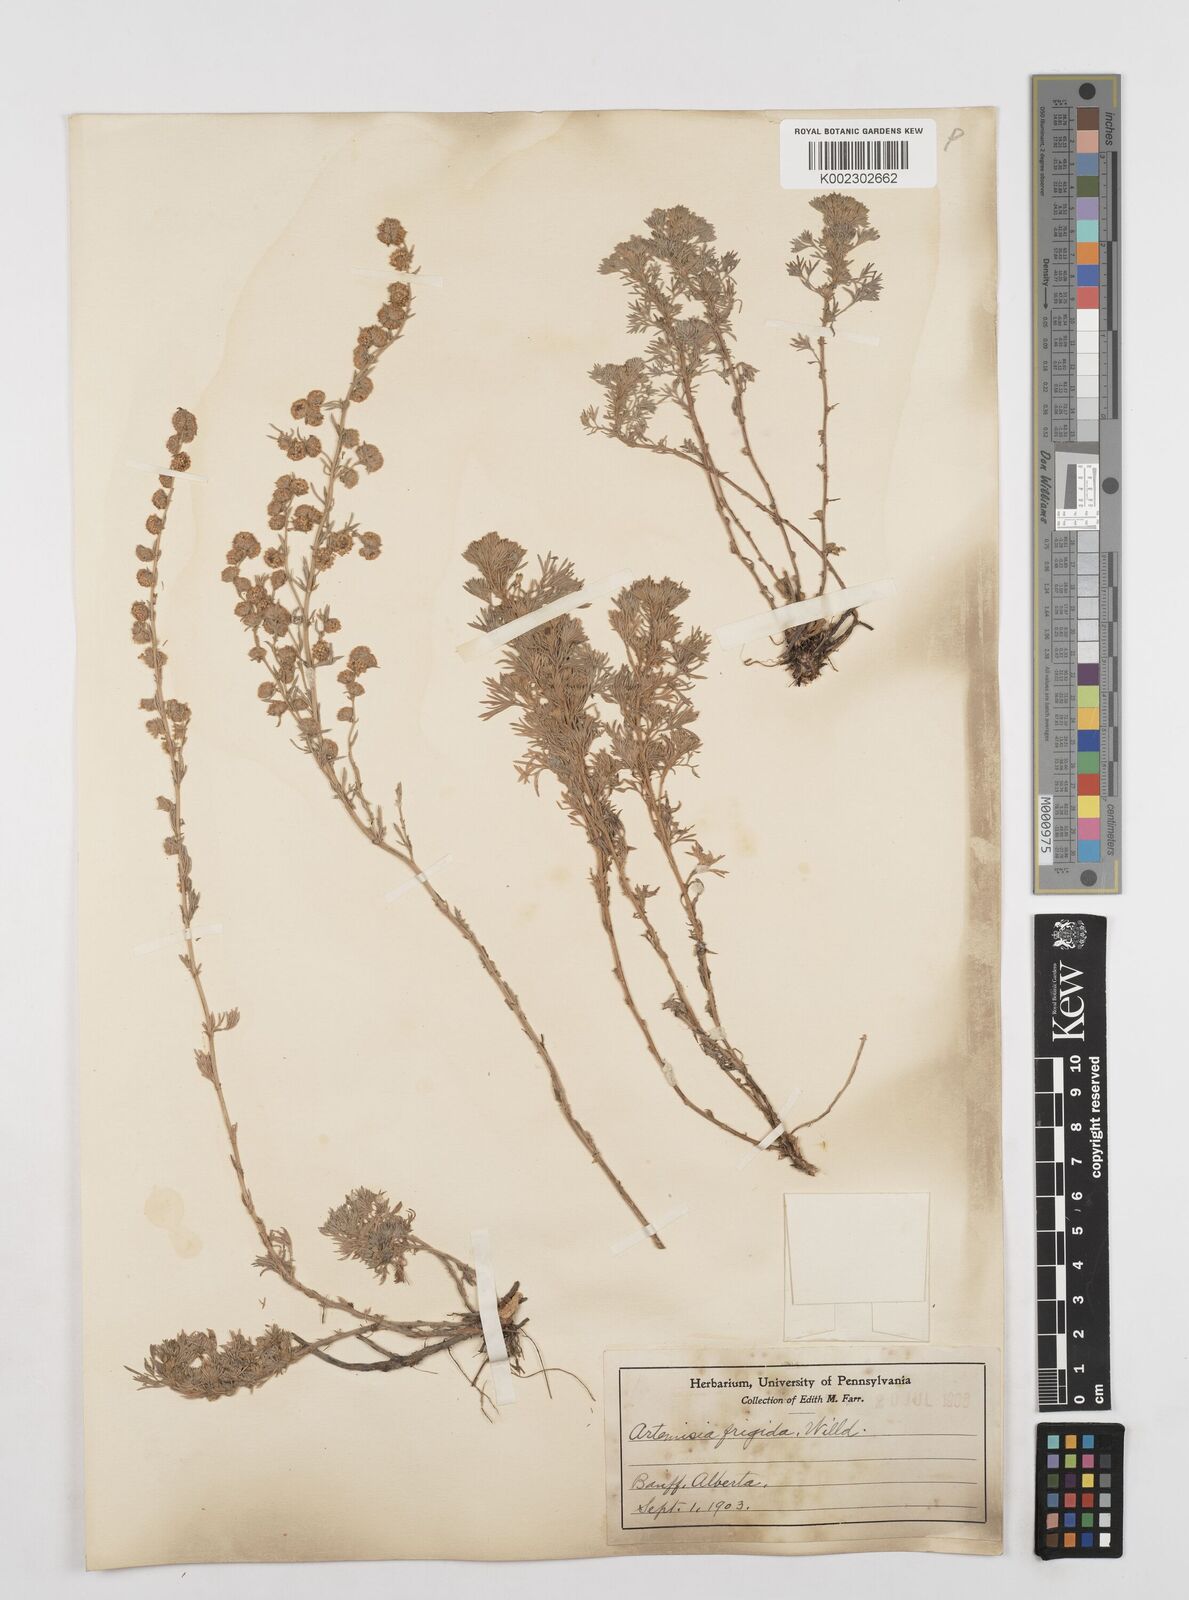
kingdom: Plantae
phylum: Tracheophyta
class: Magnoliopsida
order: Asterales
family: Asteraceae
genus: Artemisia
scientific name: Artemisia frigida
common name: Prairie sagewort
